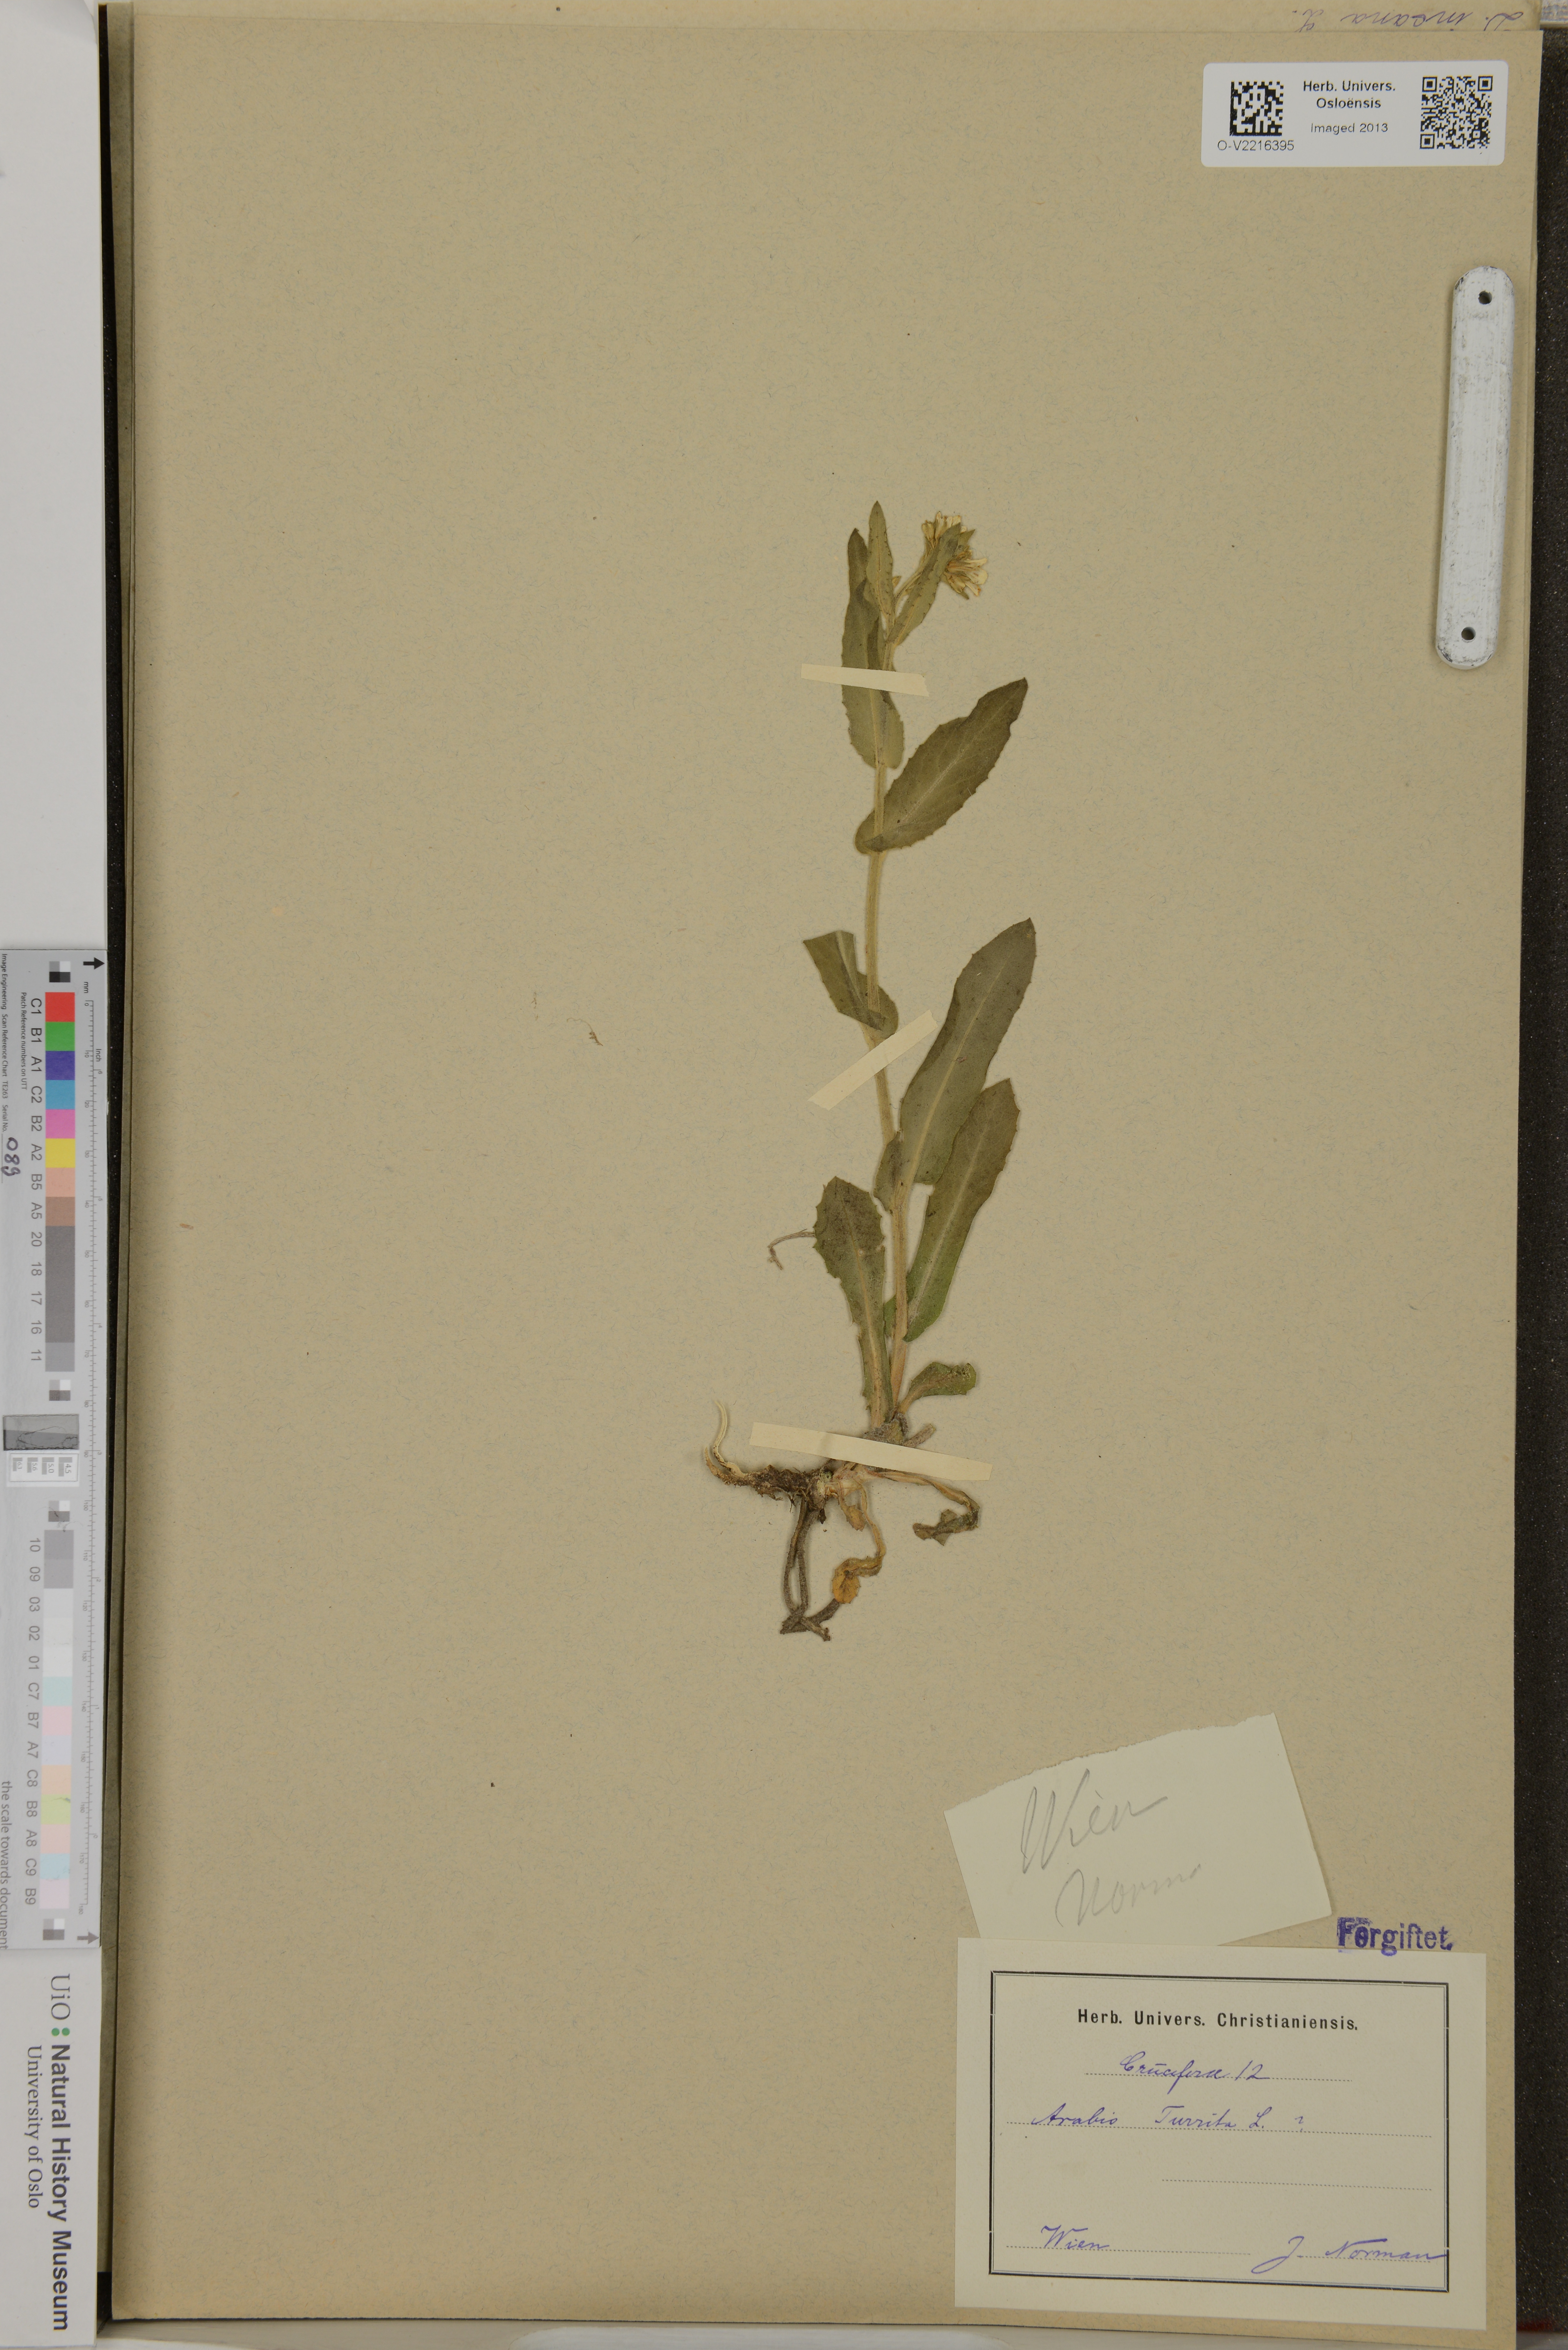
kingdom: Plantae
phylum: Tracheophyta
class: Magnoliopsida
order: Brassicales
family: Brassicaceae
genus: Pseudoturritis
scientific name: Pseudoturritis turrita
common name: Tower cress
